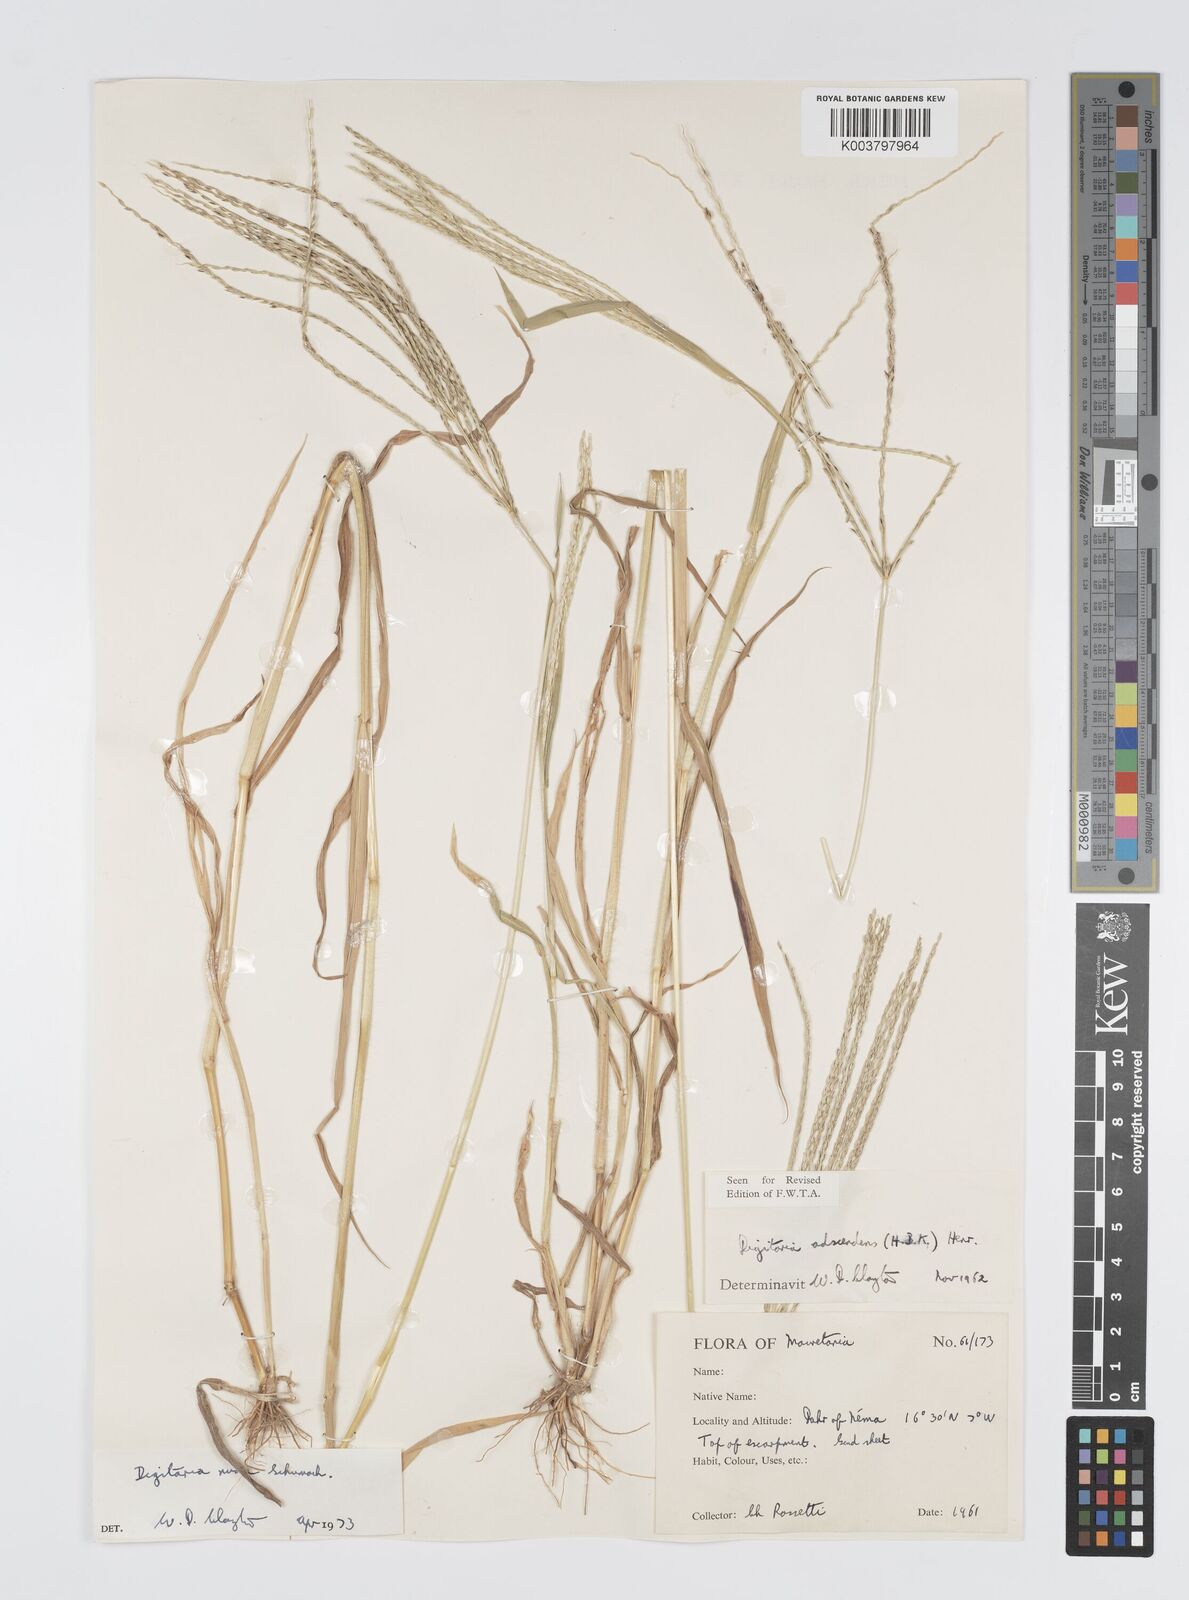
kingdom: Plantae
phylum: Tracheophyta
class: Liliopsida
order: Poales
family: Poaceae
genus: Digitaria
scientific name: Digitaria nuda
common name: Naked crabgrass
